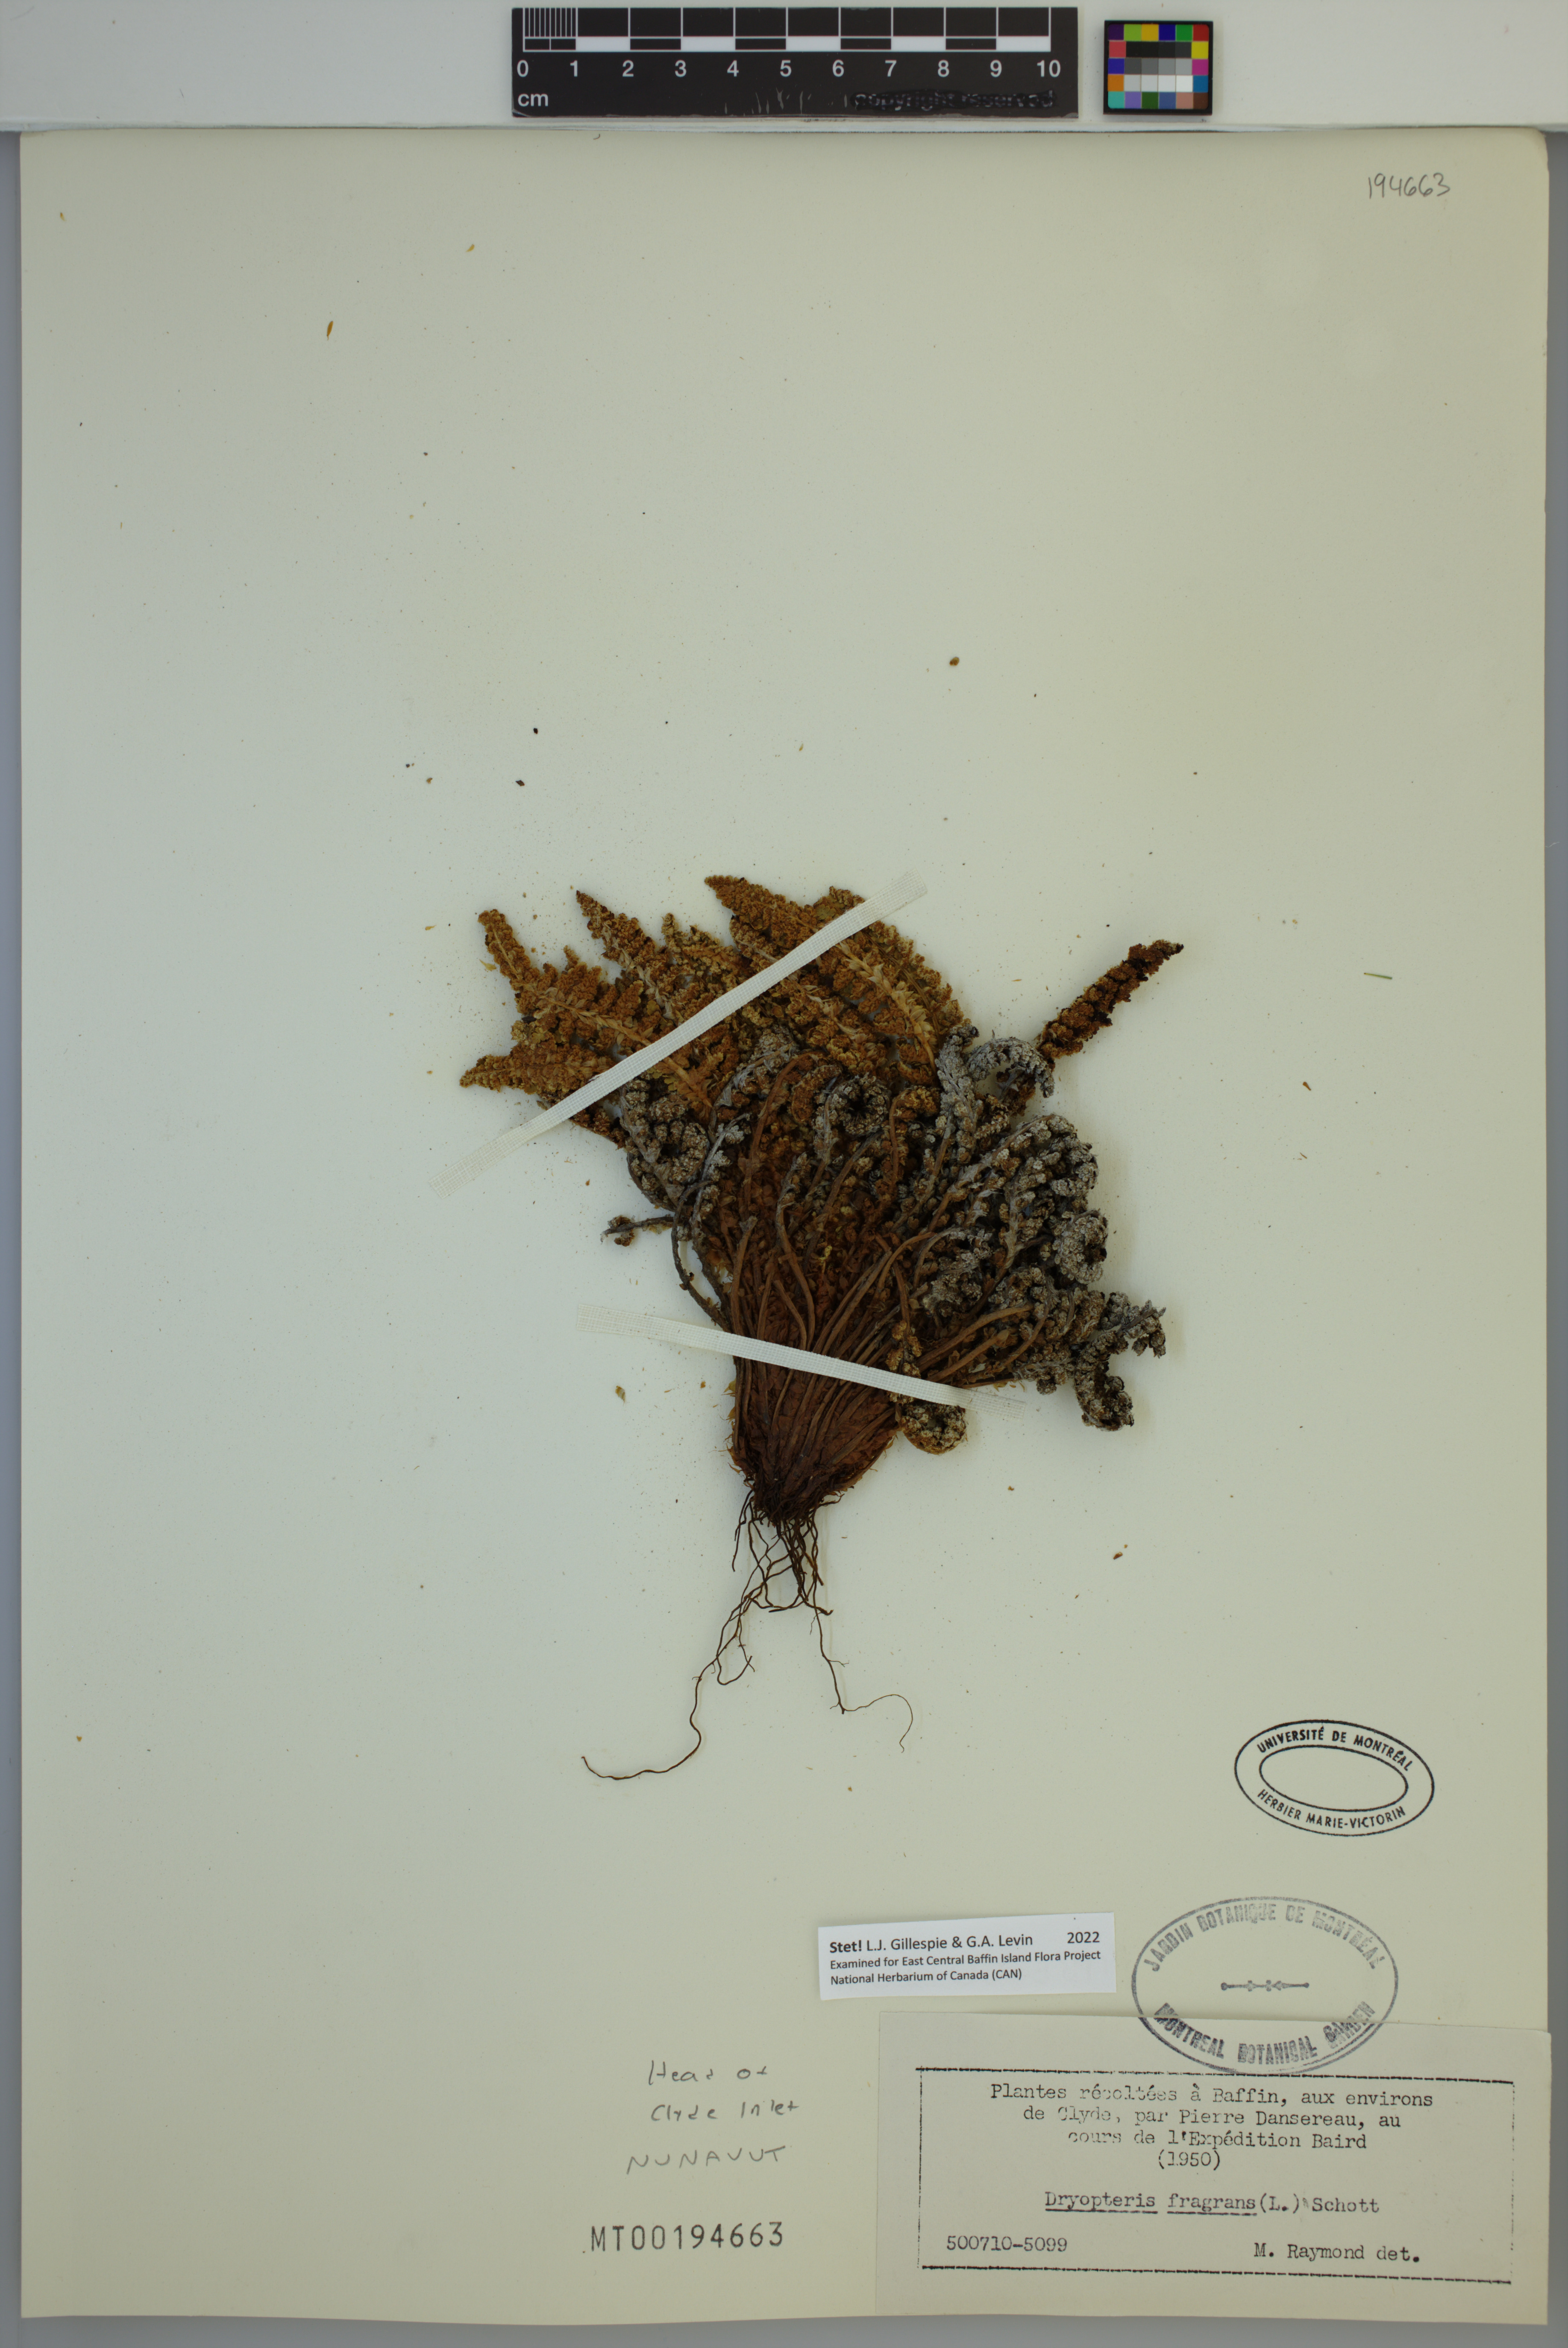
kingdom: Plantae
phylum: Tracheophyta
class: Polypodiopsida
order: Polypodiales
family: Dryopteridaceae
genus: Dryopteris
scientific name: Dryopteris fragrans
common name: Fragrant wood fern
